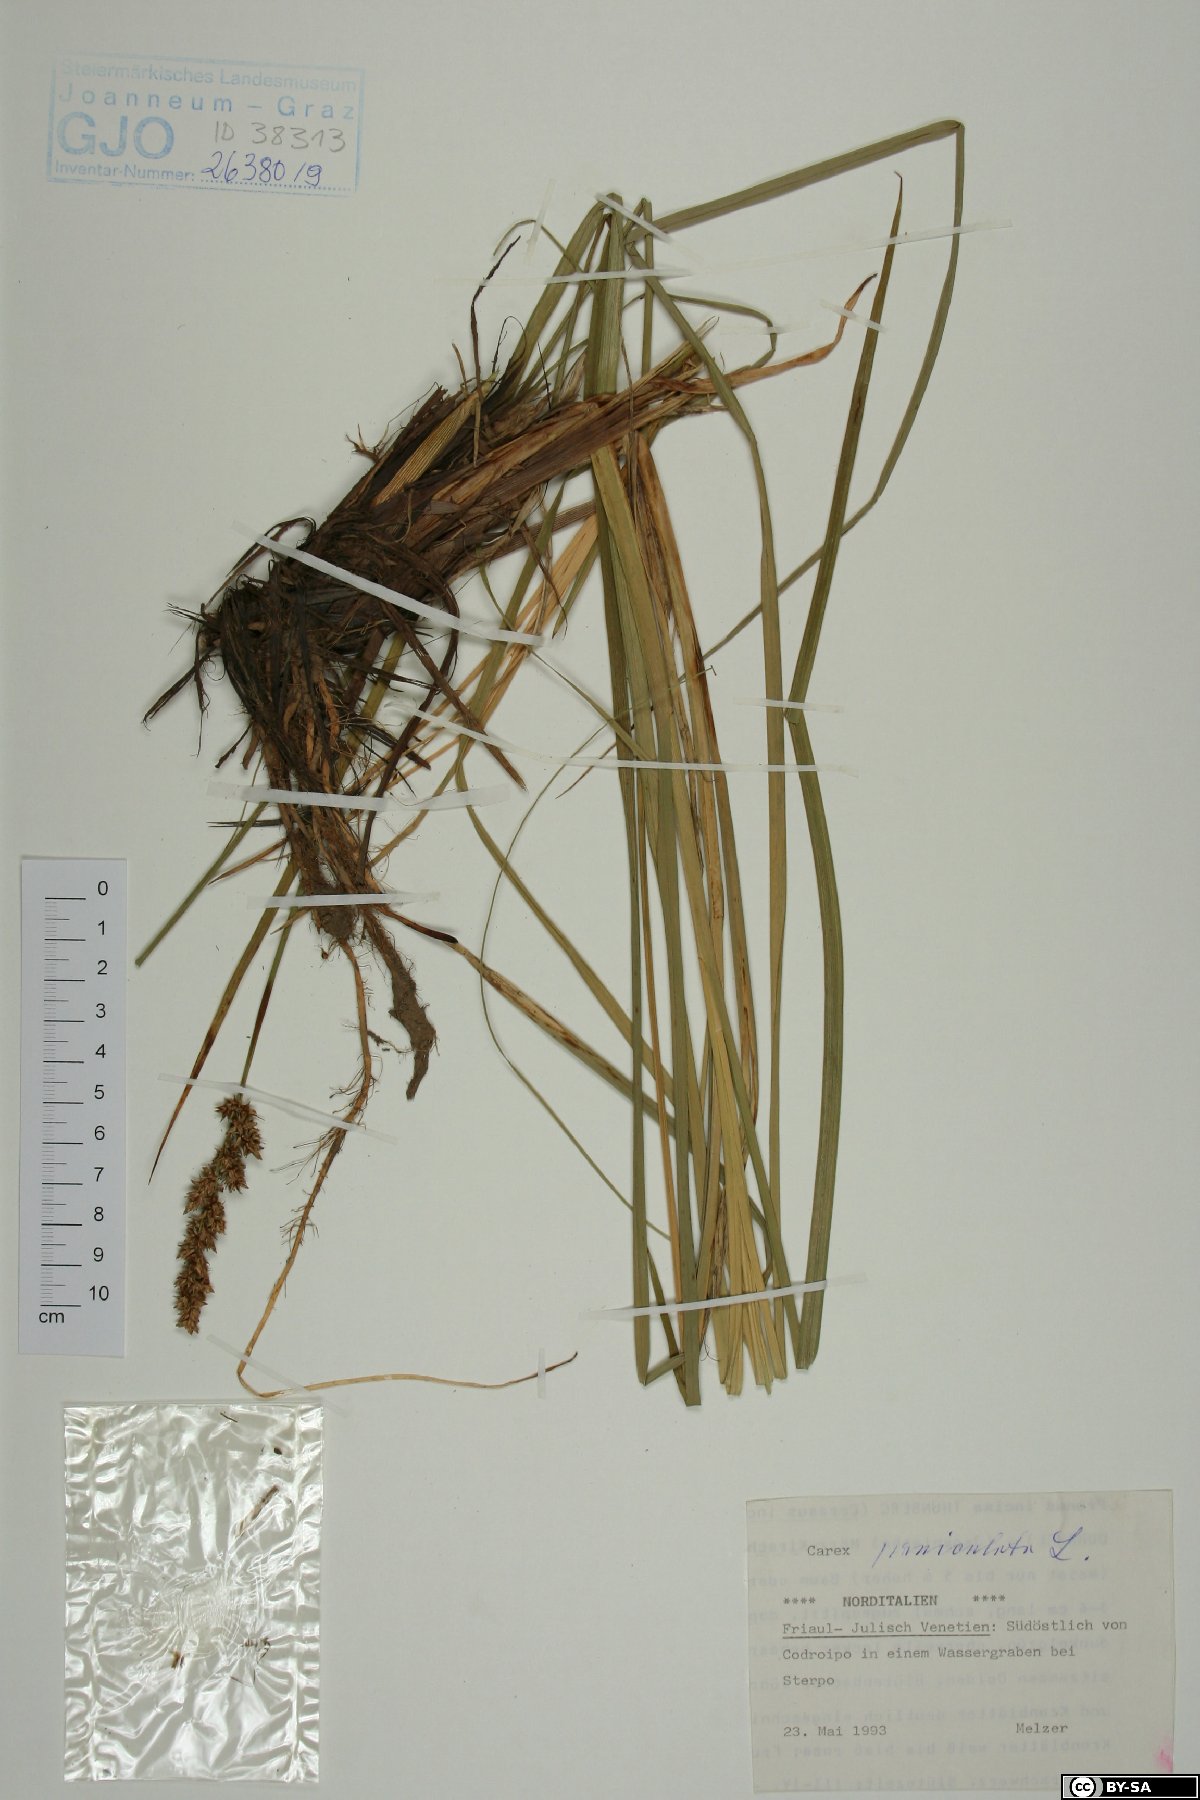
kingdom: Plantae
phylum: Tracheophyta
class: Liliopsida
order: Poales
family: Cyperaceae
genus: Carex
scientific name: Carex paniculata
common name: Greater tussock-sedge
